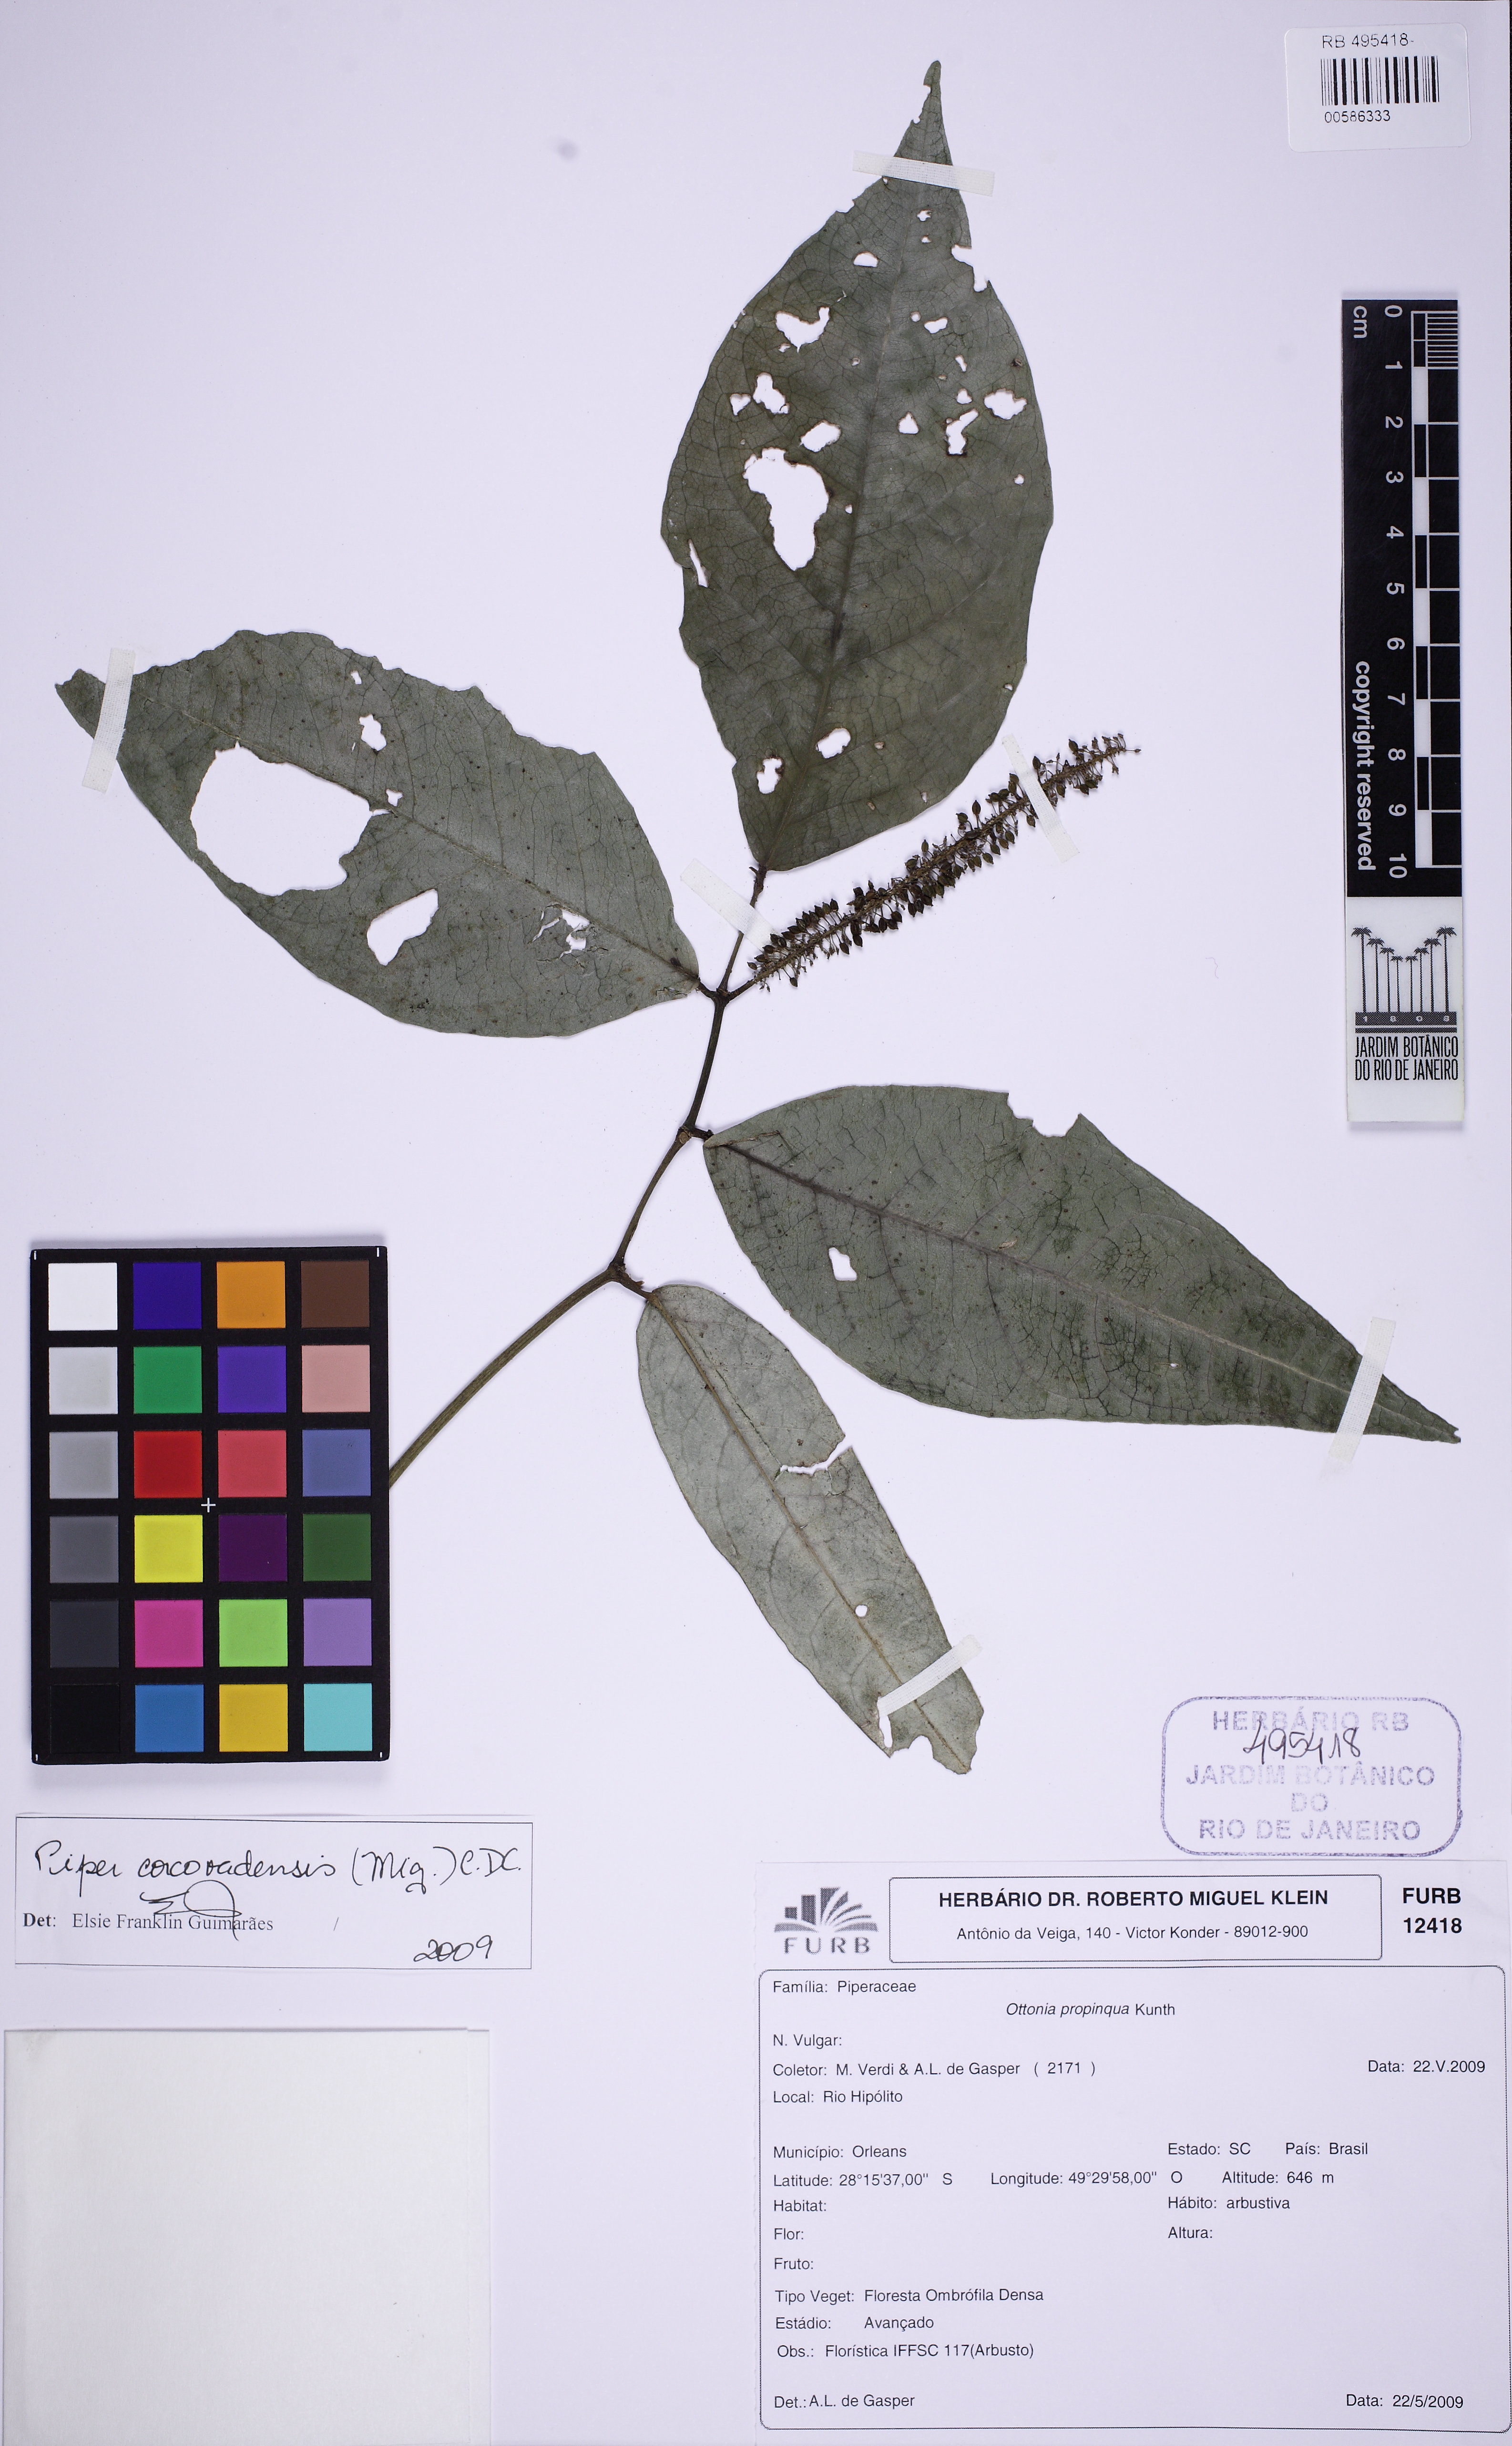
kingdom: Plantae
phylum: Tracheophyta
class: Magnoliopsida
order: Piperales
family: Piperaceae
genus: Piper
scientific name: Piper corcovadense
